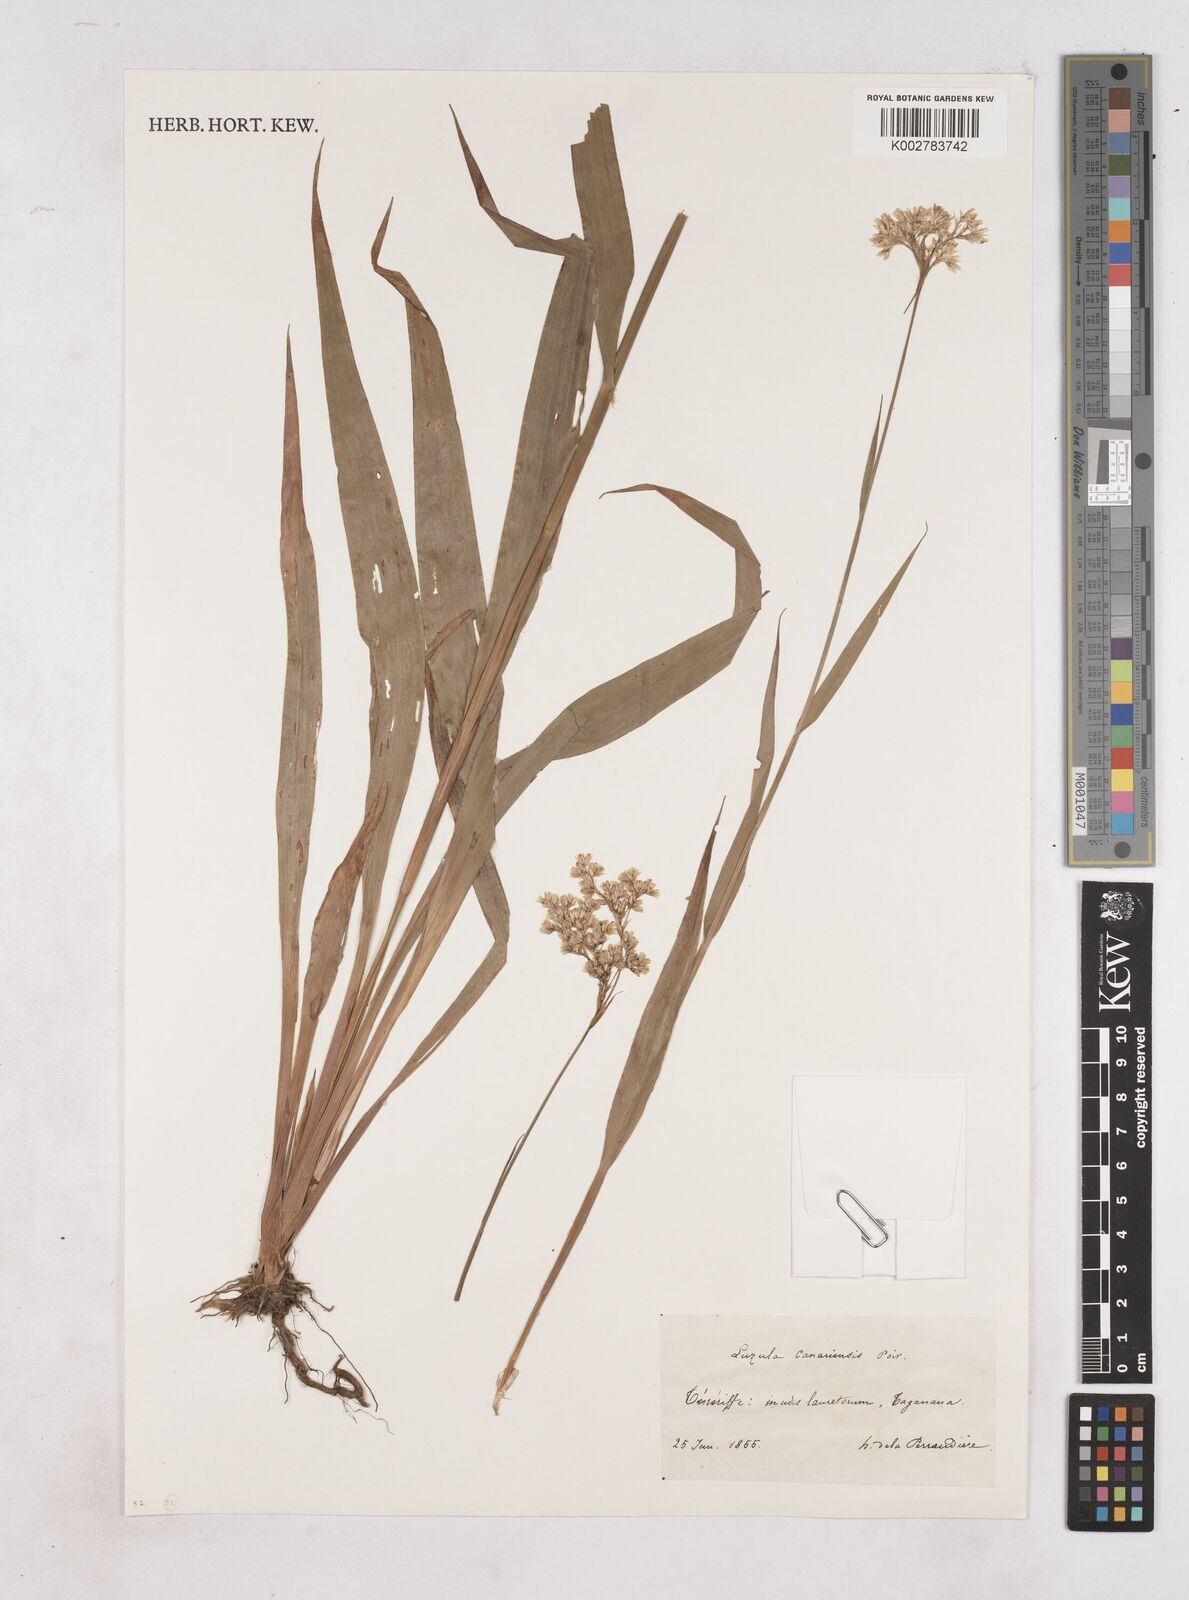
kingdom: Plantae
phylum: Tracheophyta
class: Liliopsida
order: Poales
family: Juncaceae
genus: Luzula
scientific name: Luzula canariensis
